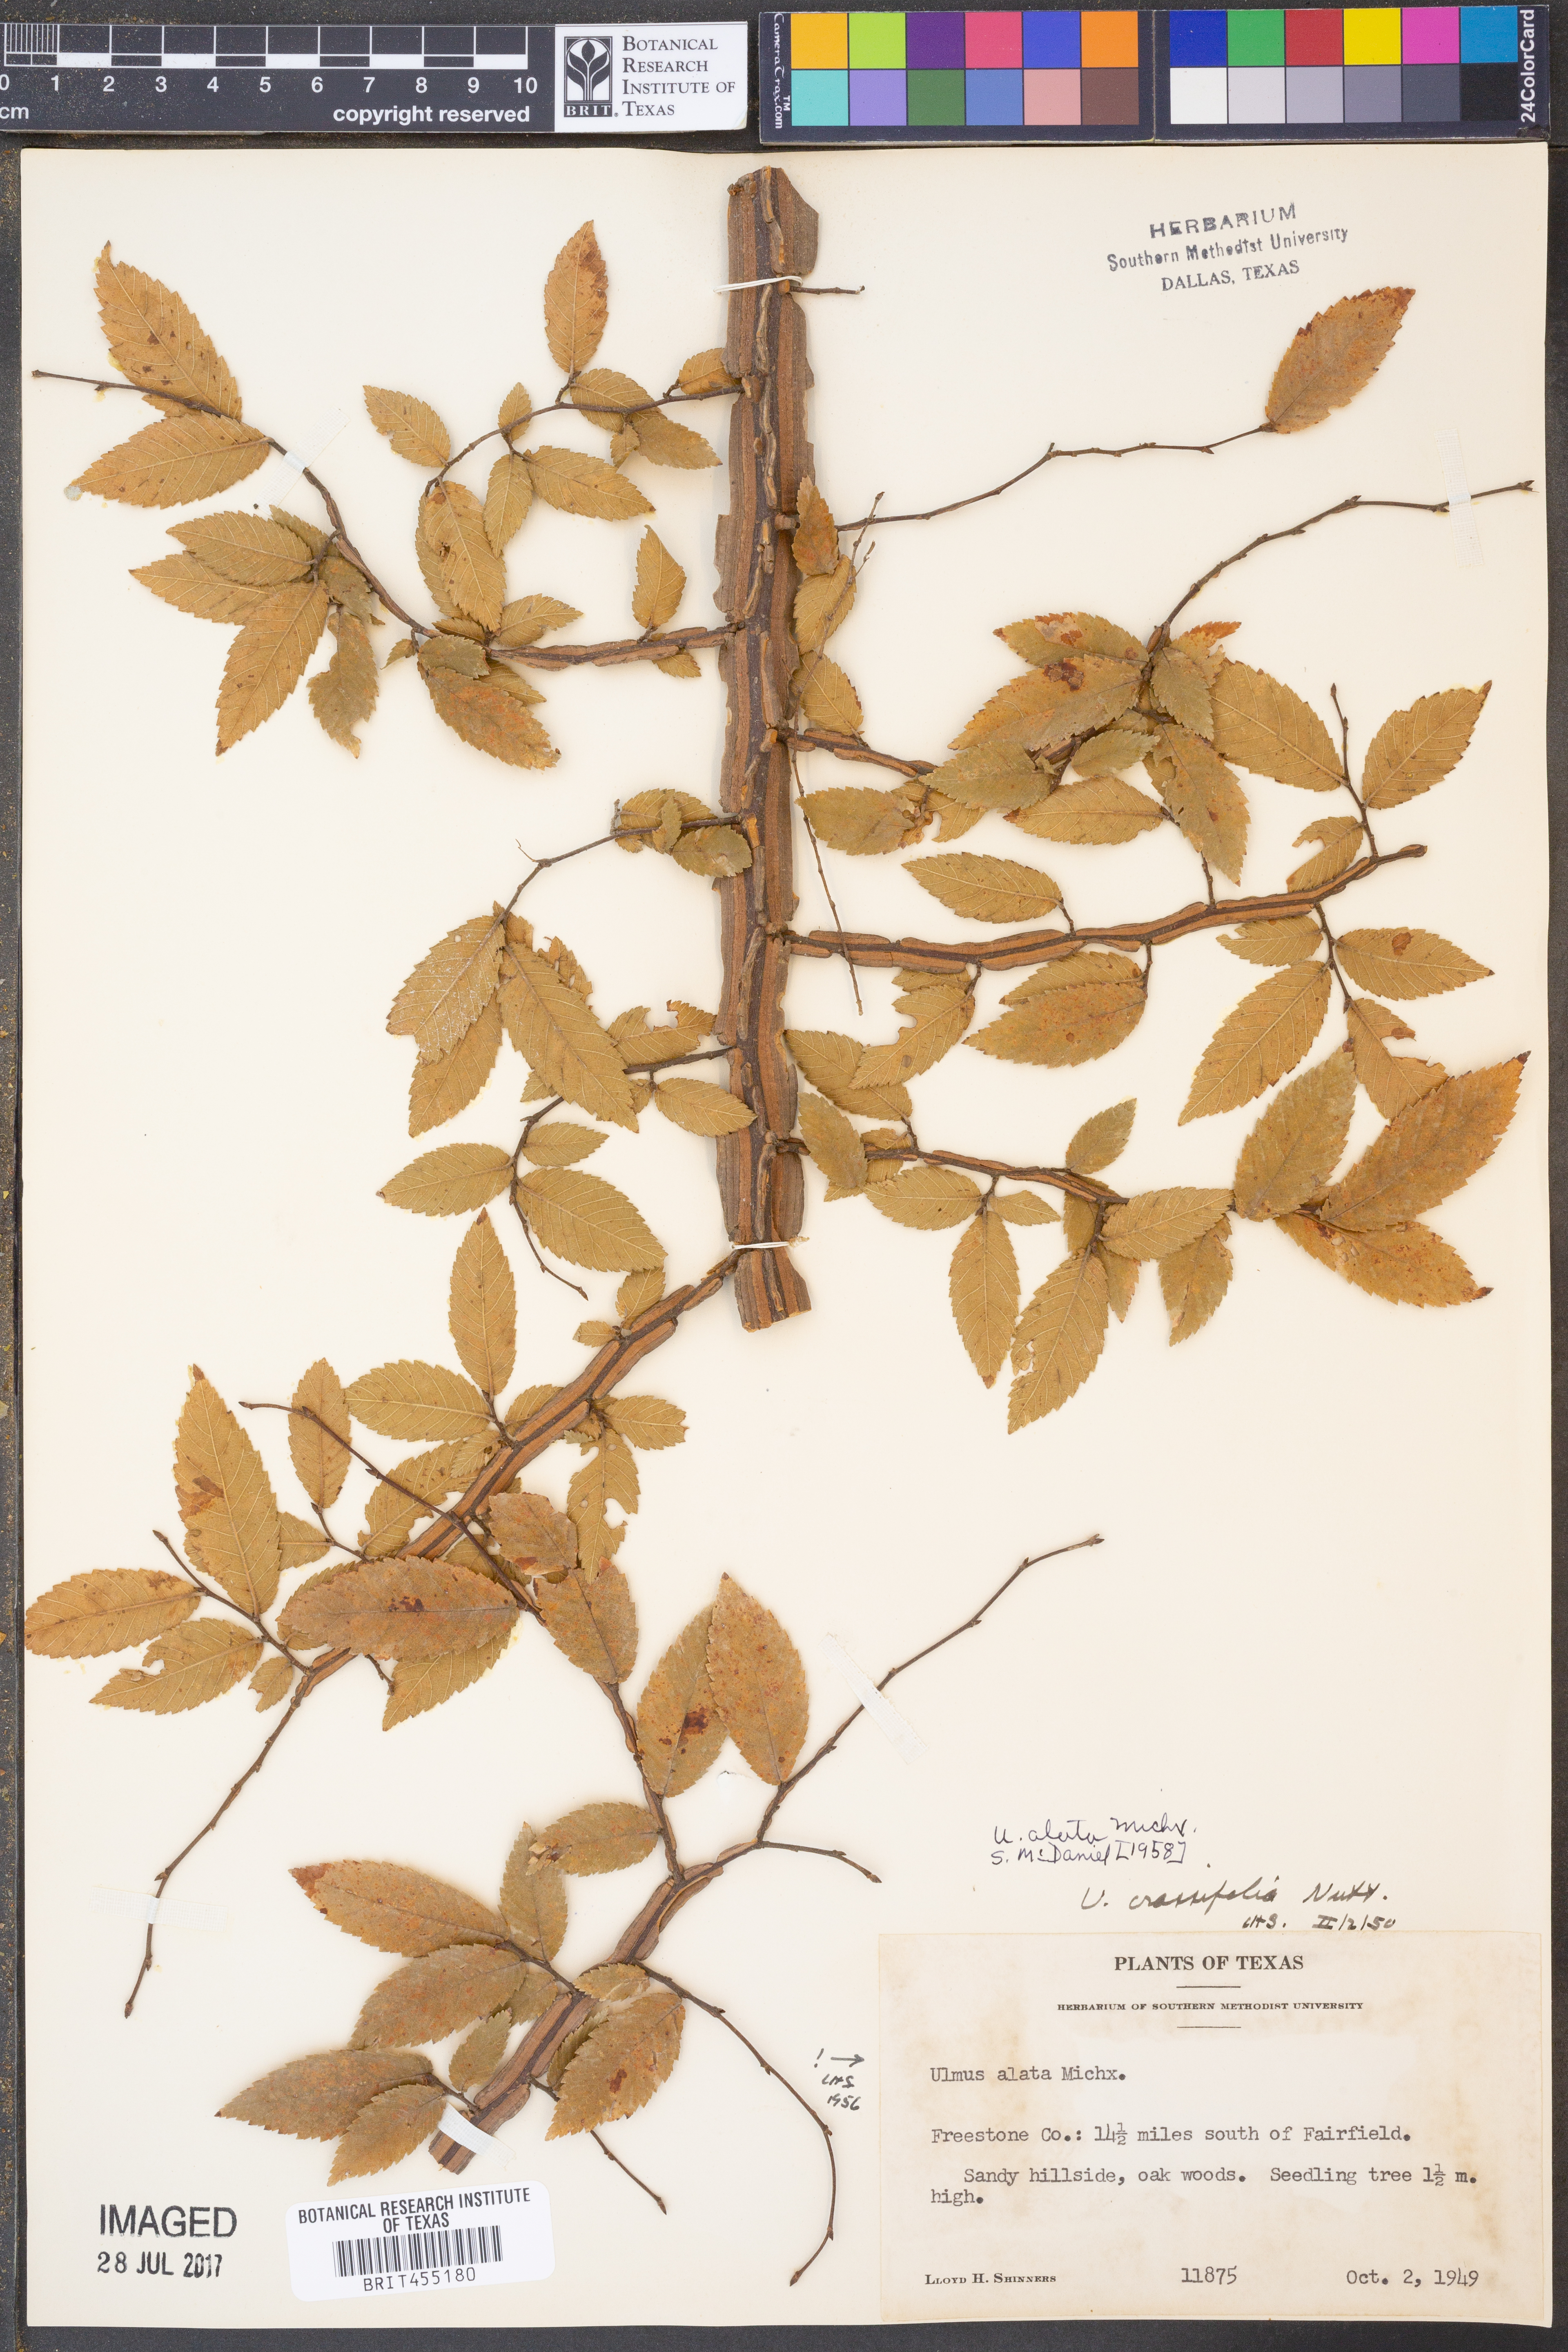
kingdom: Plantae
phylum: Tracheophyta
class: Magnoliopsida
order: Rosales
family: Ulmaceae
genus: Ulmus
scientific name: Ulmus alata
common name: Winged elm
